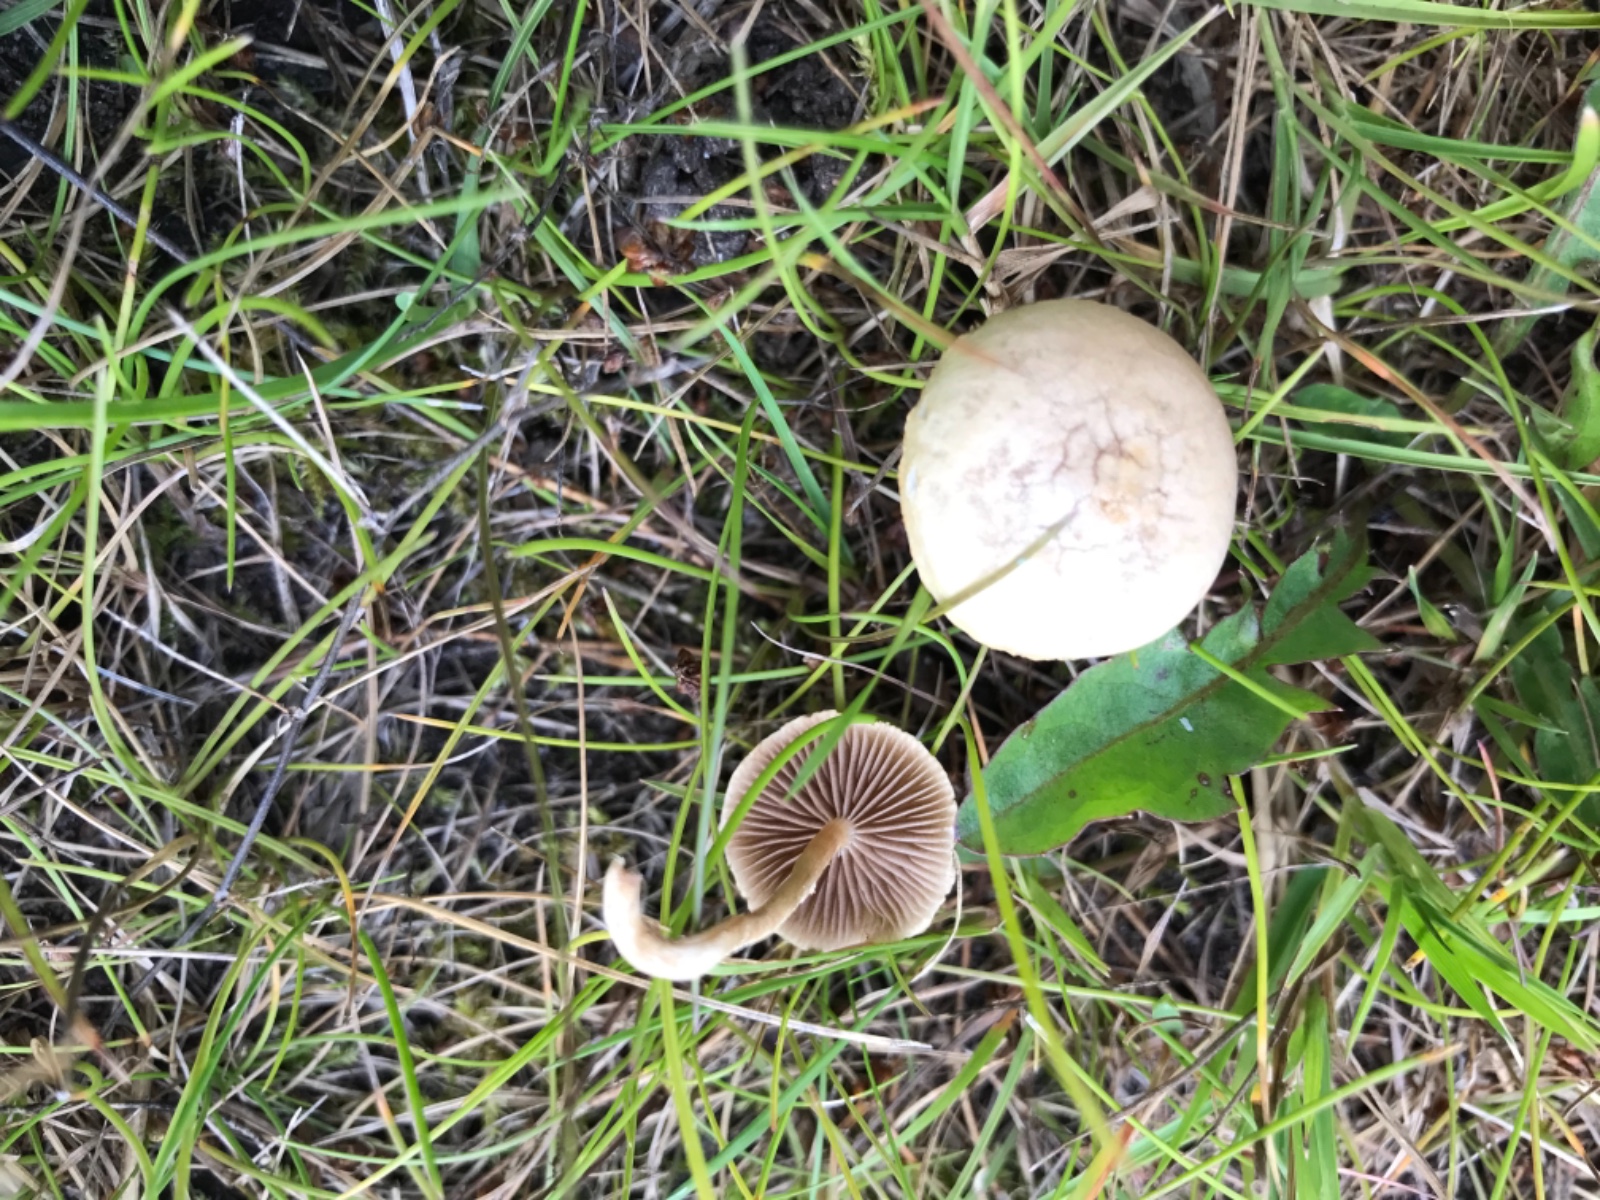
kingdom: Fungi
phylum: Basidiomycota
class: Agaricomycetes
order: Agaricales
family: Strophariaceae
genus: Agrocybe
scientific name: Agrocybe pediades
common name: almindelig agerhat
